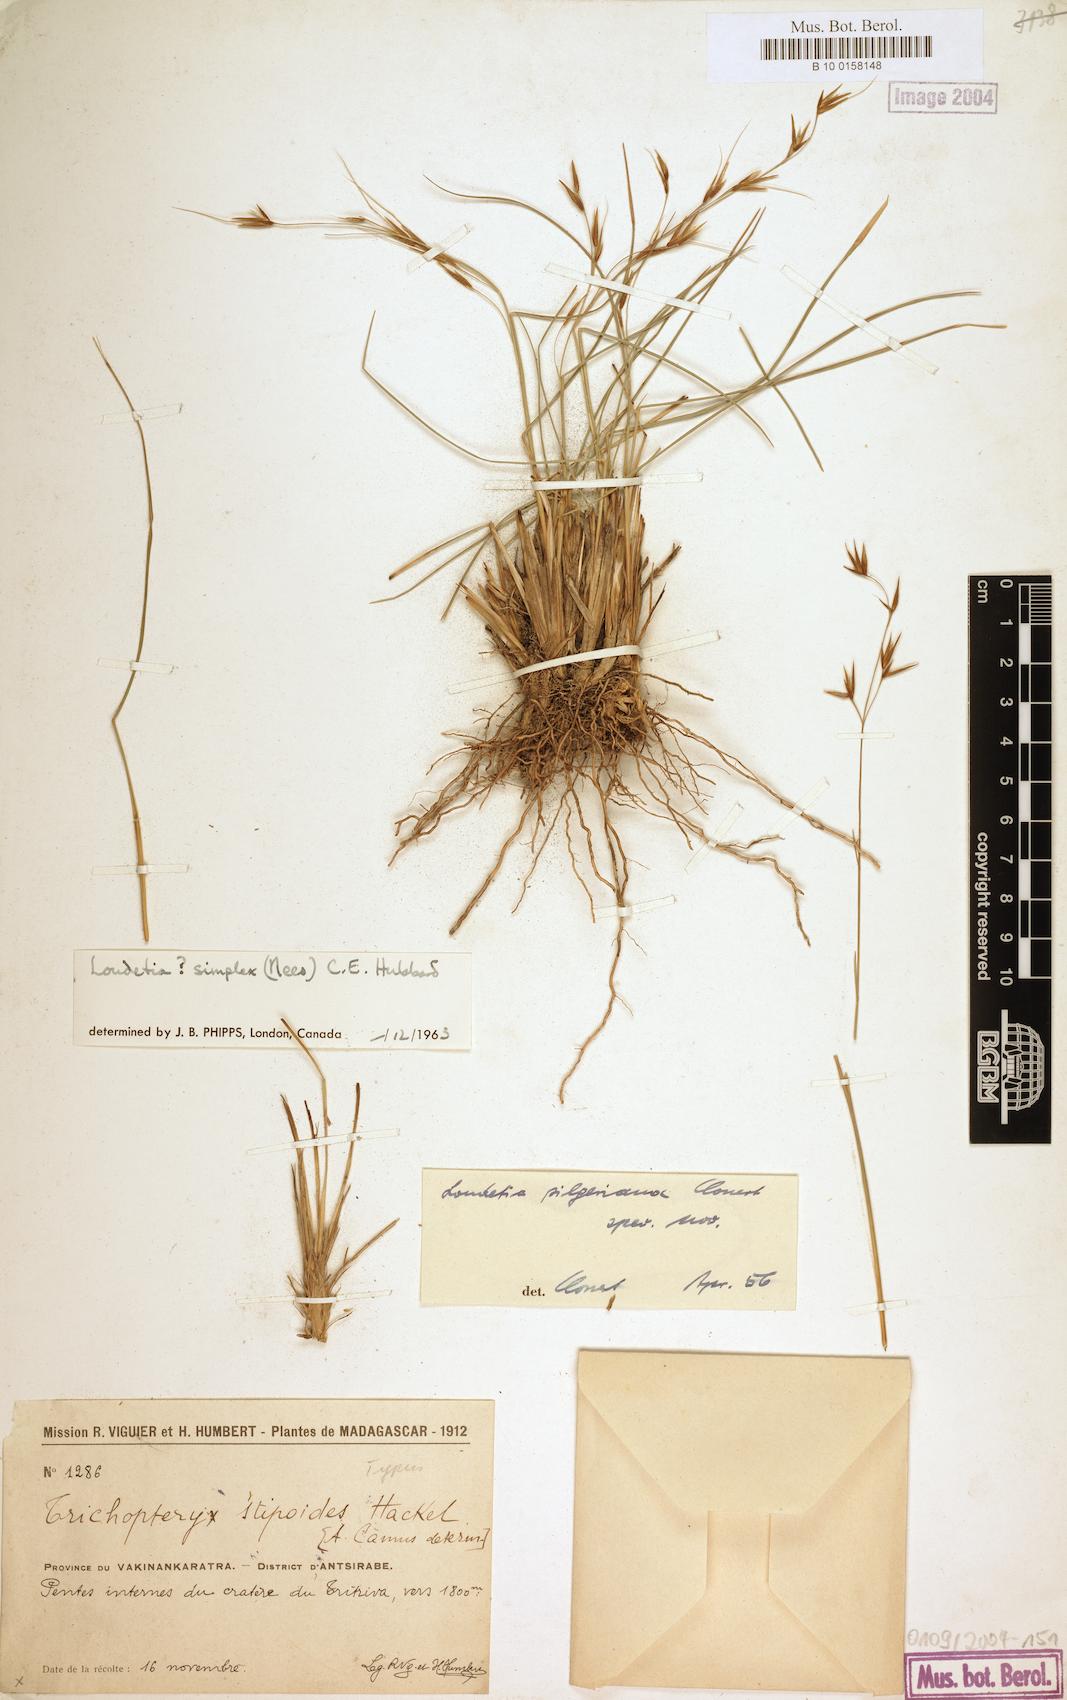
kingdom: Plantae
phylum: Tracheophyta
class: Liliopsida
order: Poales
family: Poaceae
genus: Loudetia
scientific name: Loudetia simplex
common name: Common russet grass
